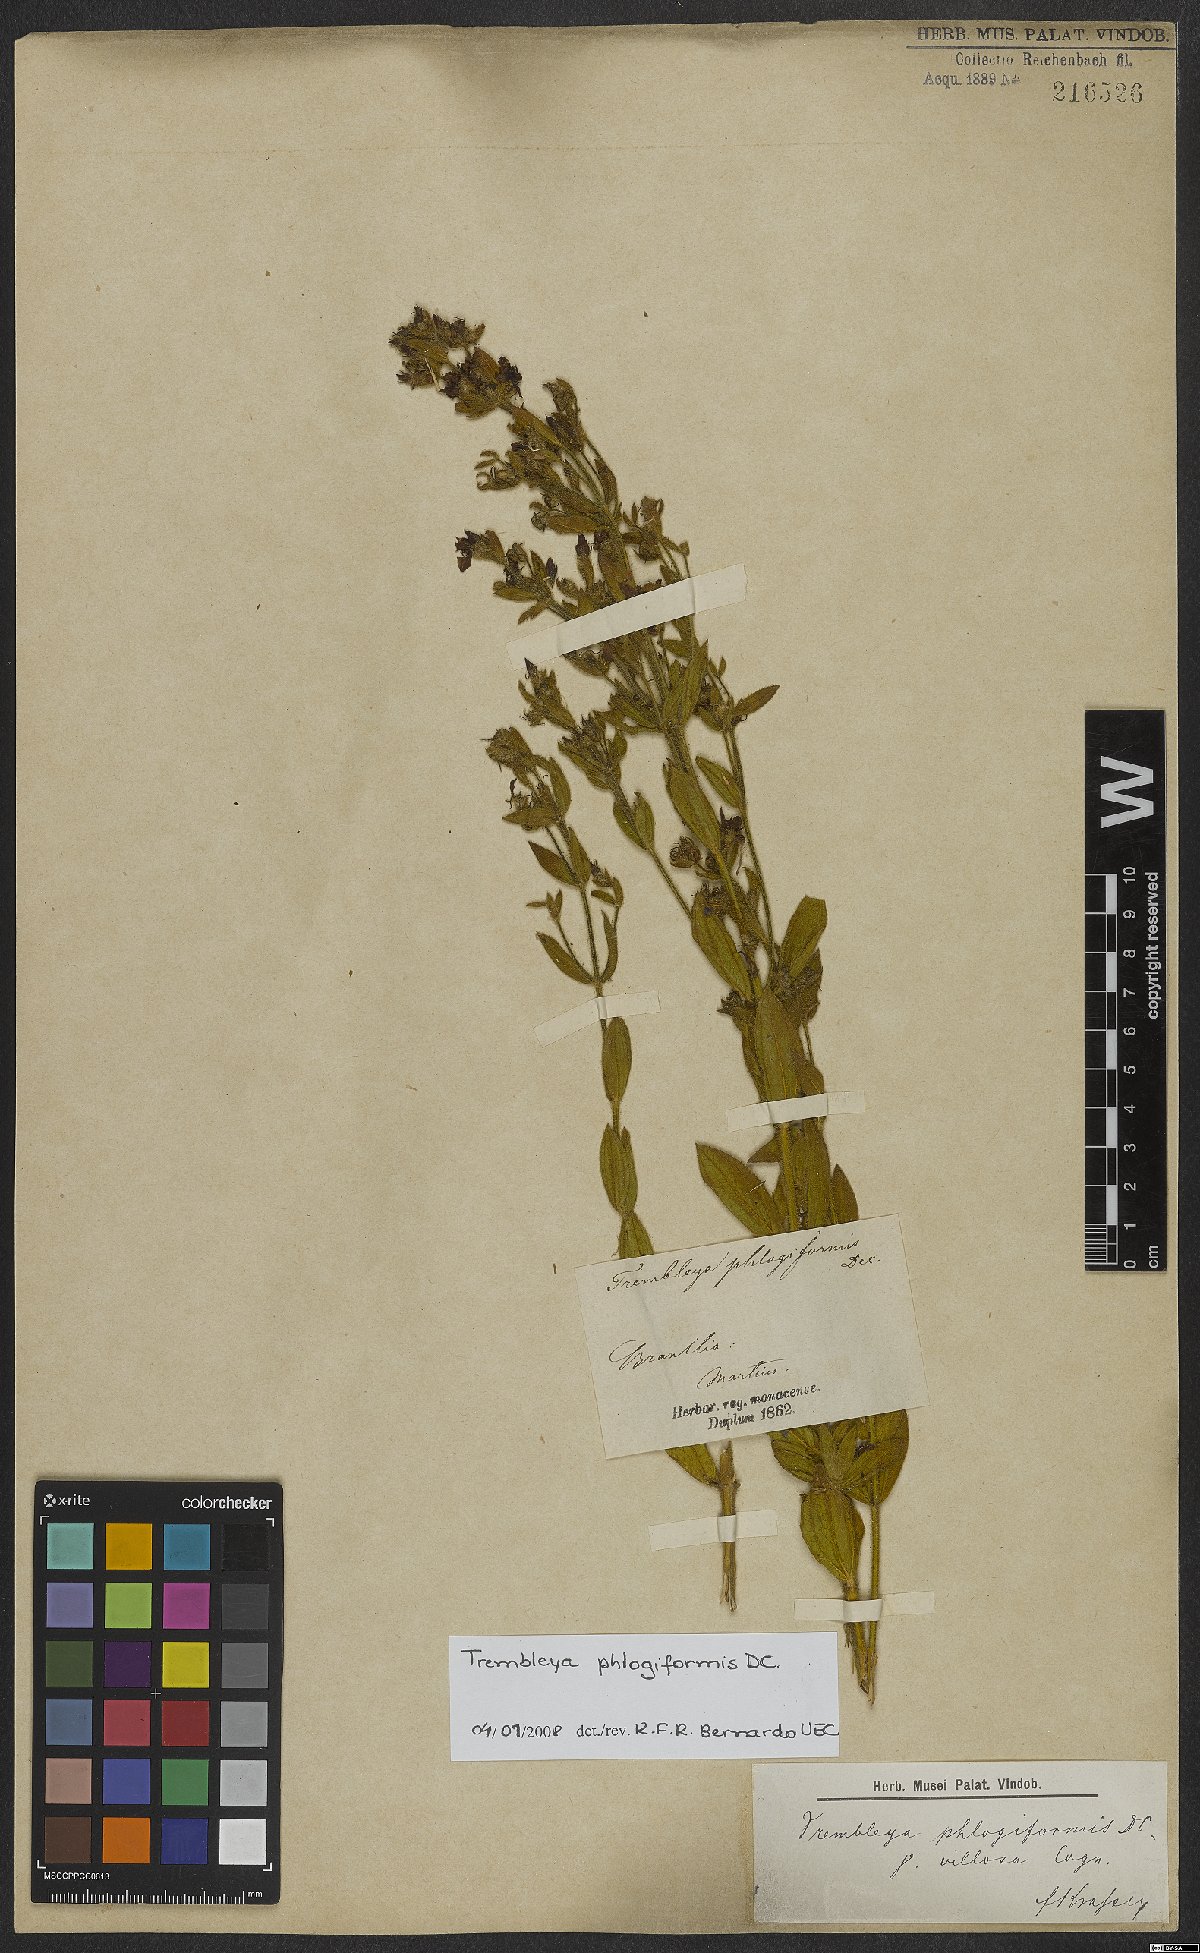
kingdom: Plantae
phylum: Tracheophyta
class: Magnoliopsida
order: Myrtales
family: Melastomataceae
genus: Microlicia
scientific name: Microlicia phlogiformis
